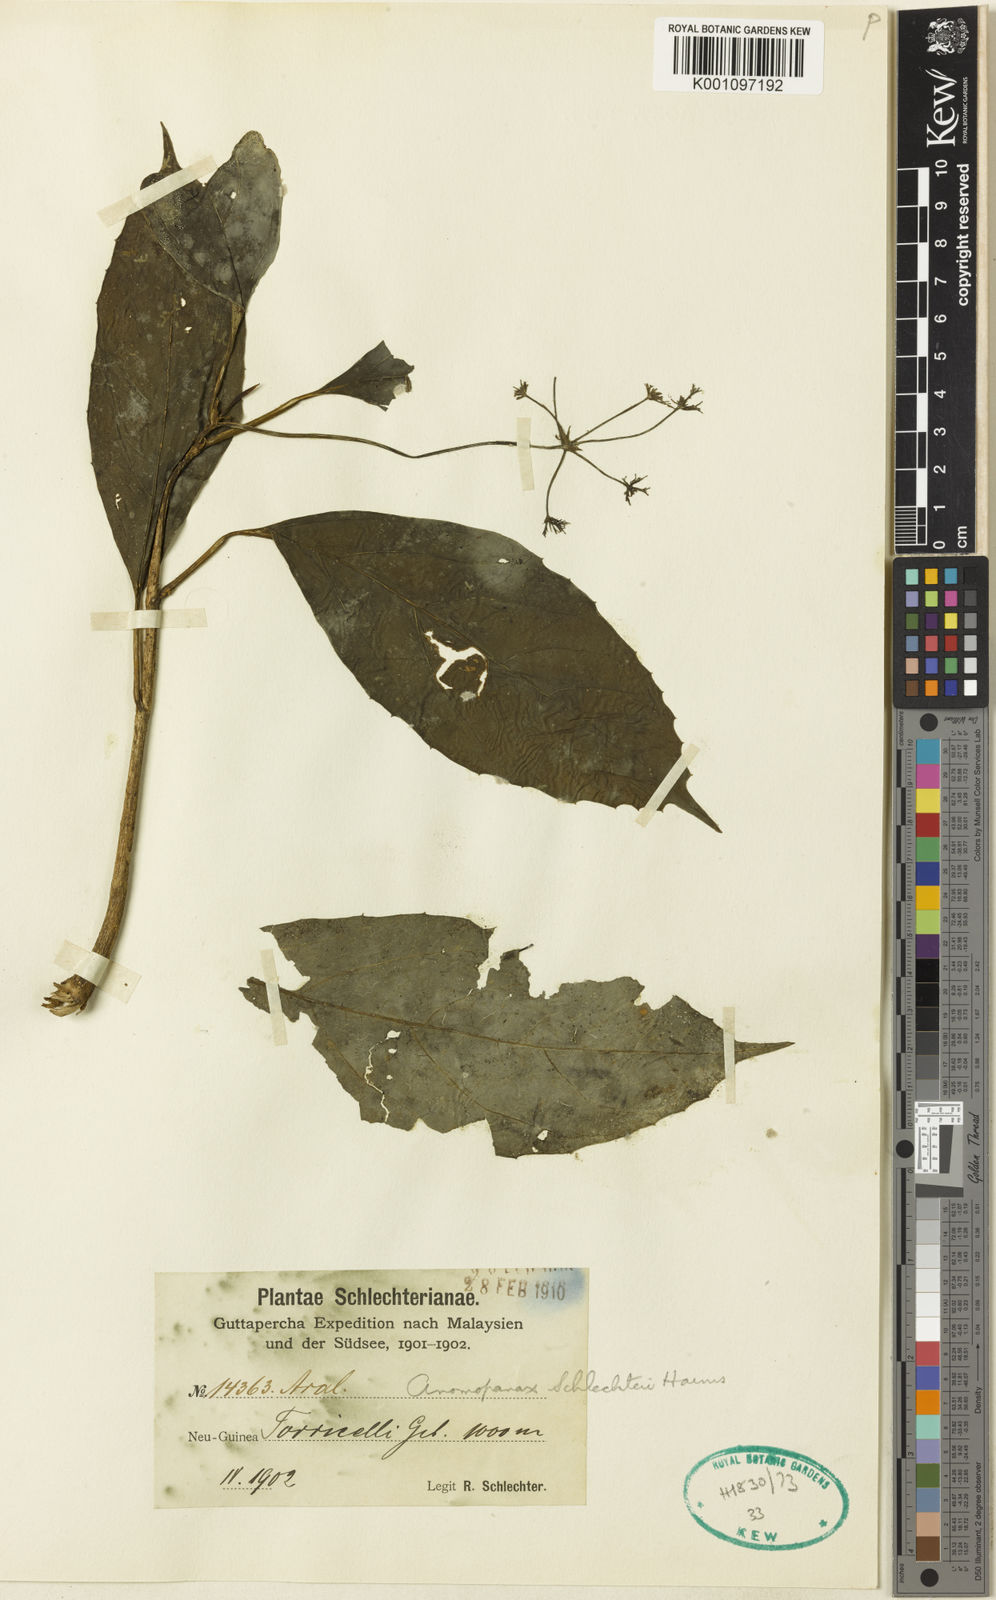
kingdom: Plantae
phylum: Tracheophyta
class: Magnoliopsida
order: Apiales
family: Apiaceae
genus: Mackinlaya
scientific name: Mackinlaya schlechteri
